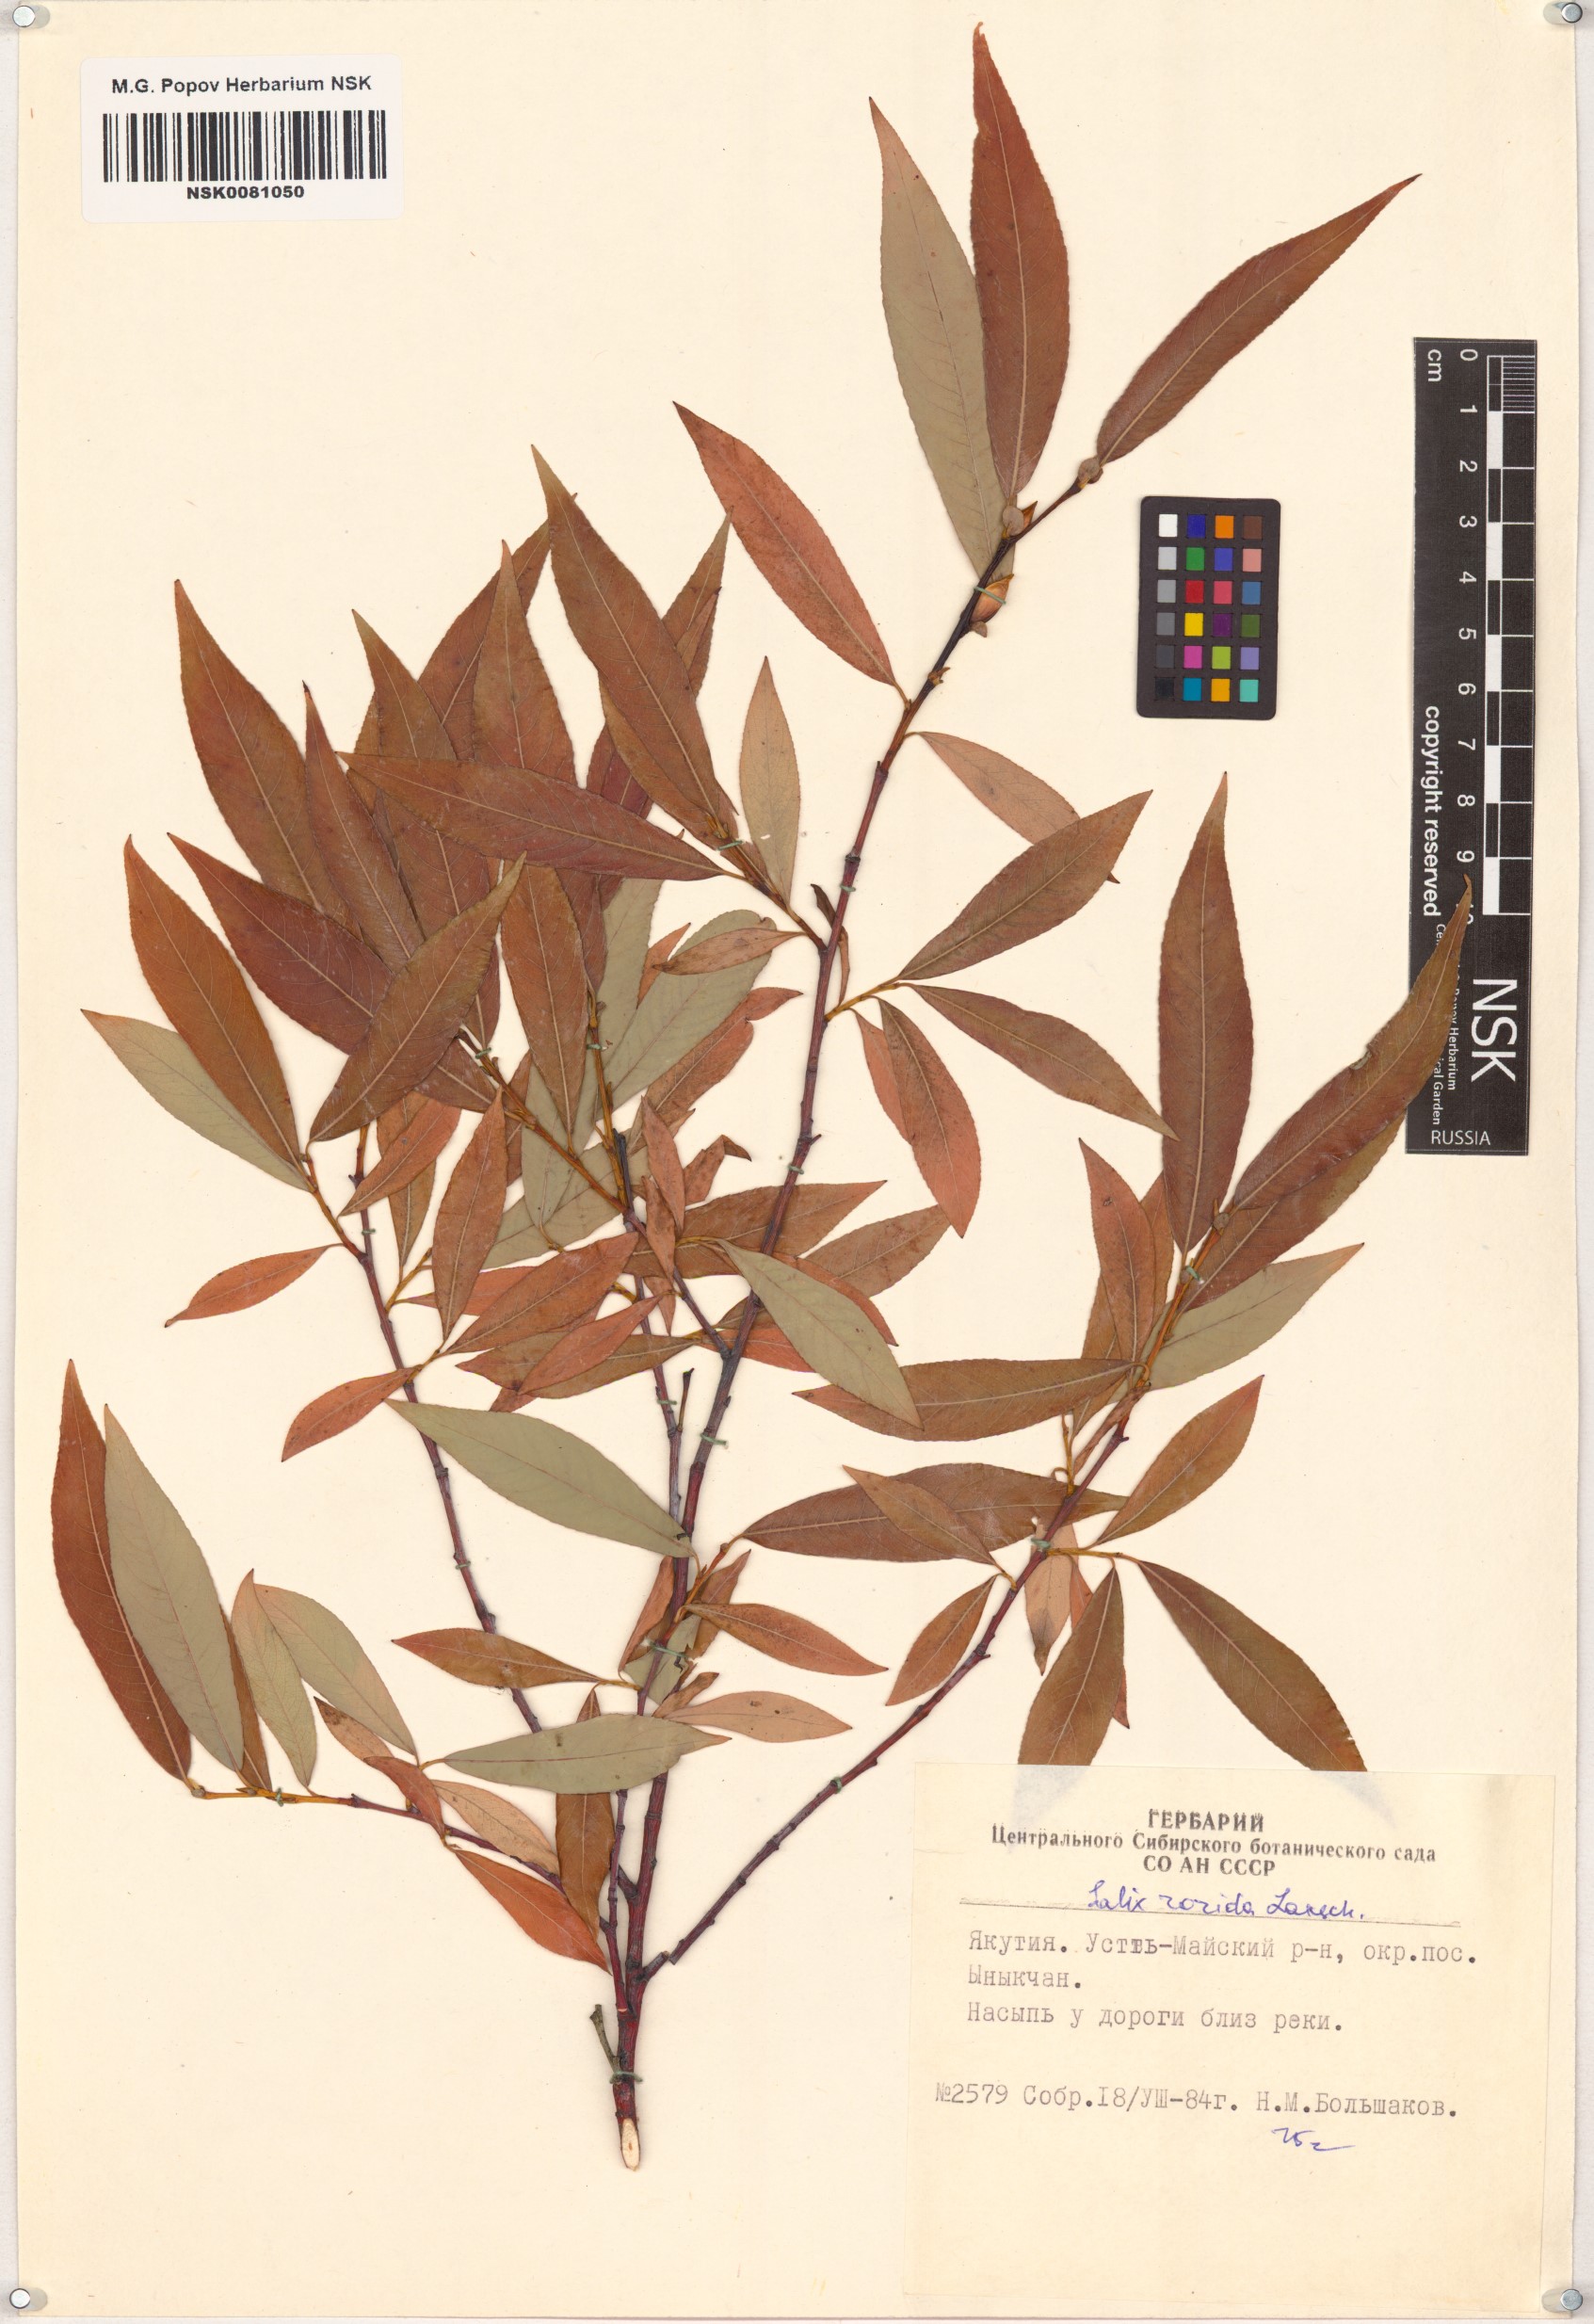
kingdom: Plantae
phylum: Tracheophyta
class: Magnoliopsida
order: Malpighiales
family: Salicaceae
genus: Salix
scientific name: Salix rorida
